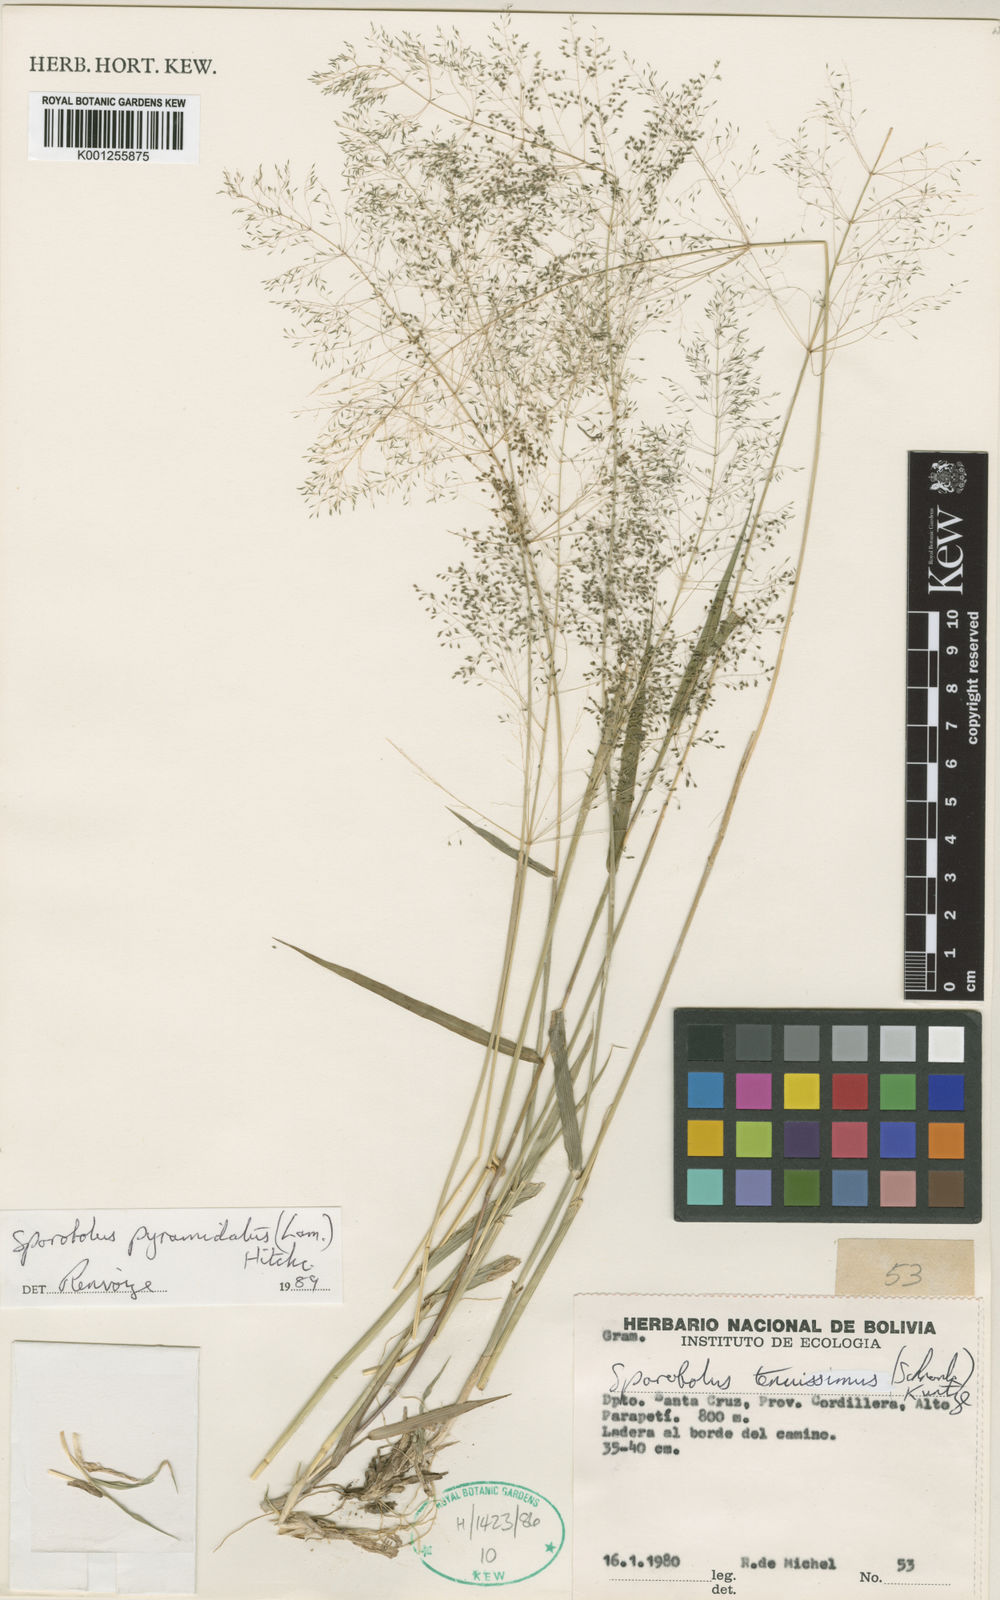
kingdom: Plantae
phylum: Tracheophyta
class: Liliopsida
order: Poales
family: Poaceae
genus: Sporobolus
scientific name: Sporobolus pyramidatus
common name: Whorled dropseed
